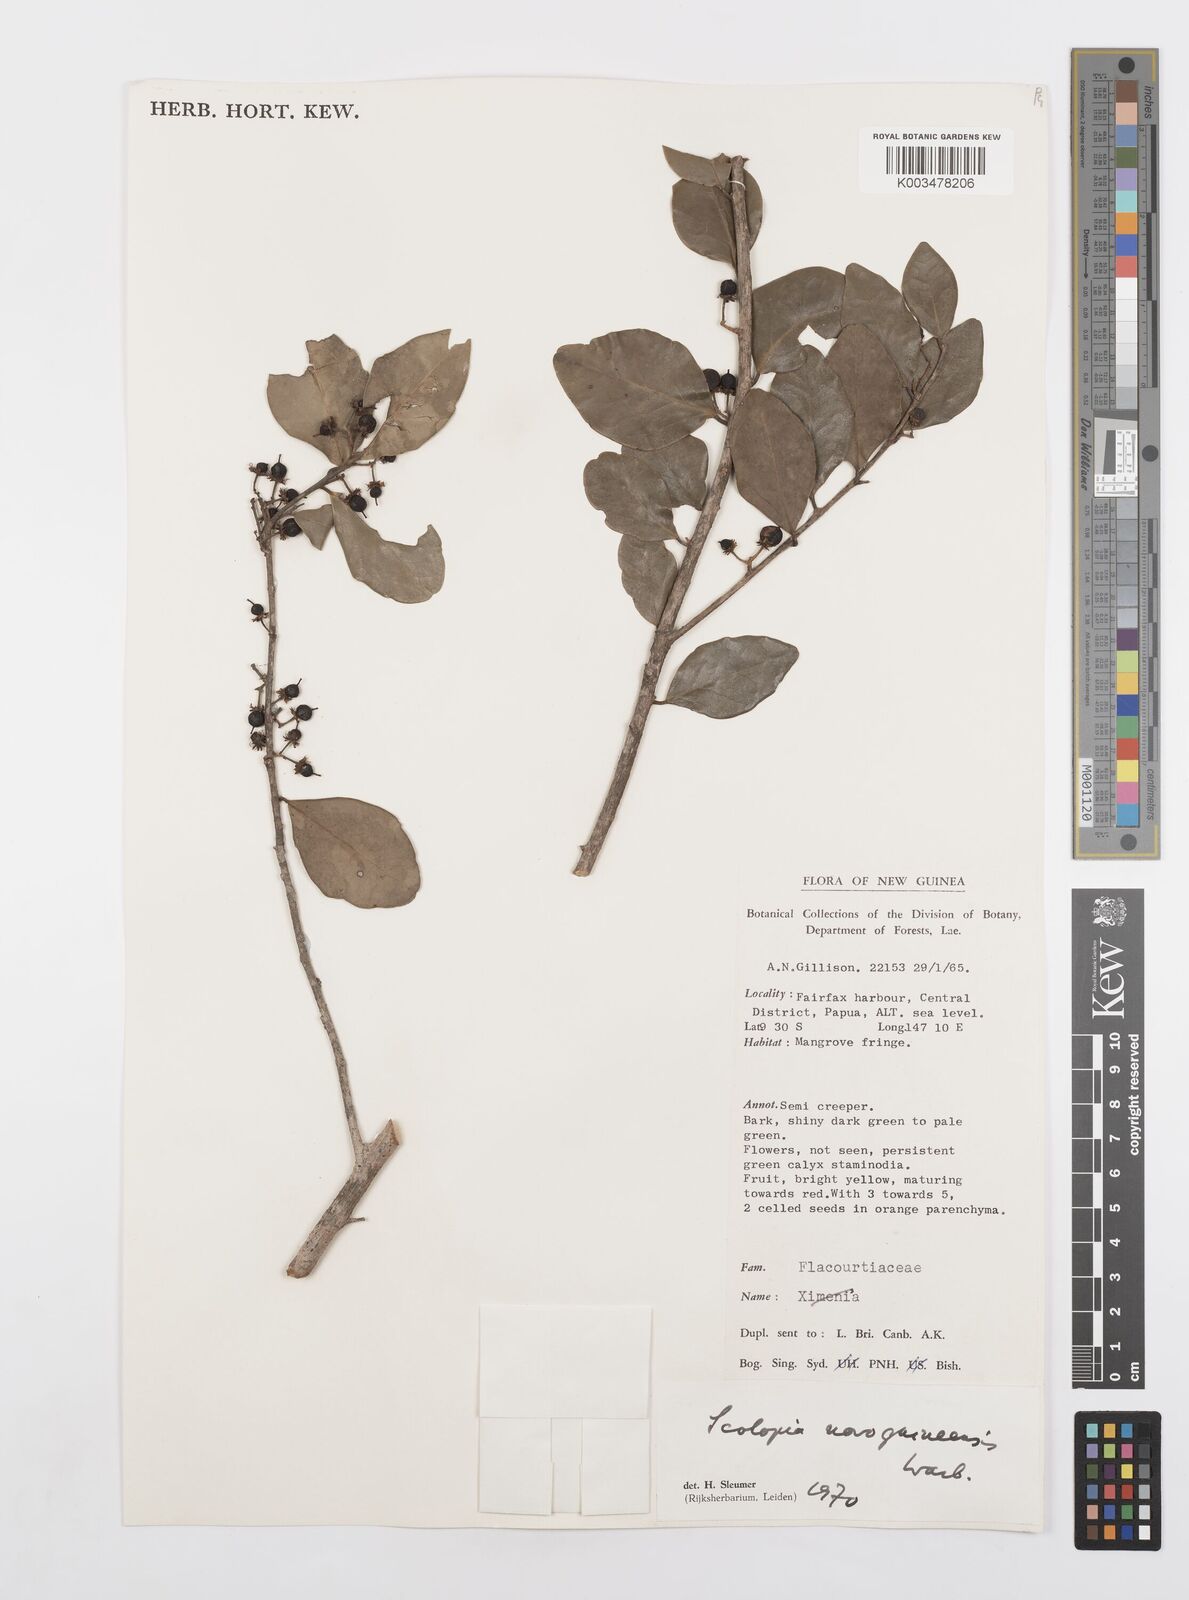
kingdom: Plantae
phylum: Tracheophyta
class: Magnoliopsida
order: Malpighiales
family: Salicaceae
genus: Scolopia
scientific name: Scolopia nitida
